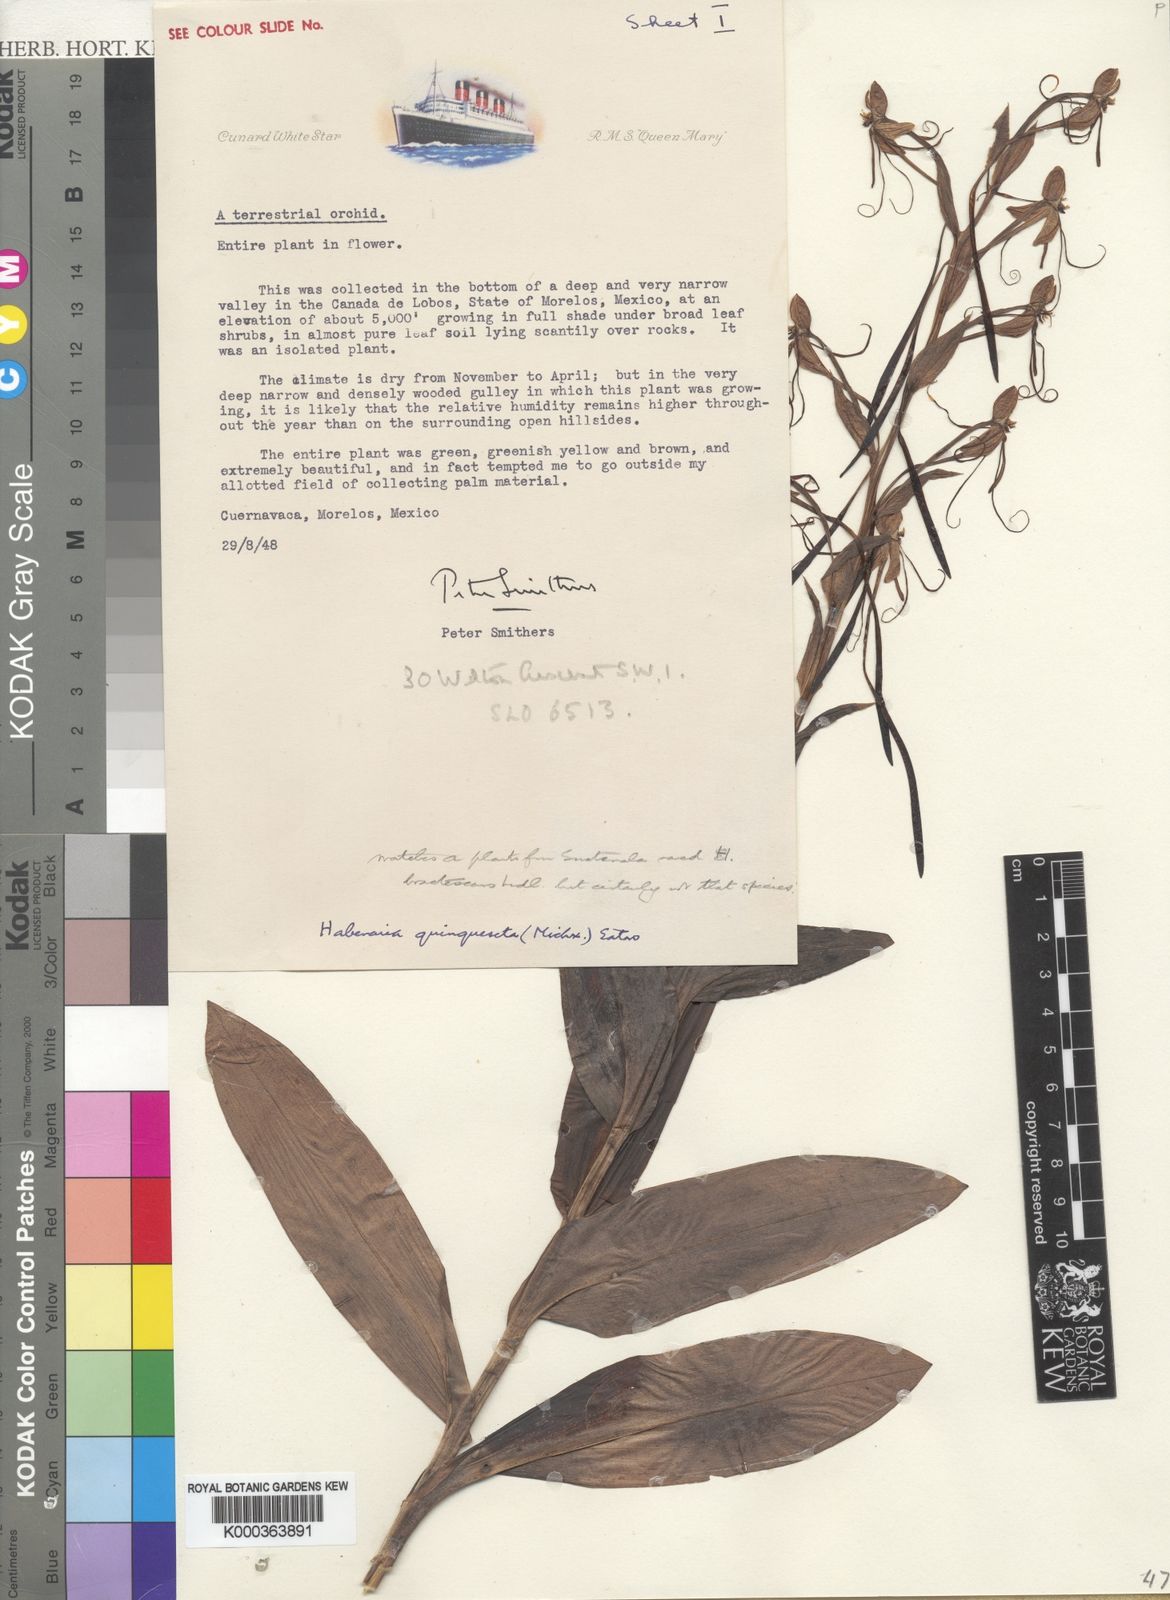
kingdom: Plantae
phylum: Tracheophyta
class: Liliopsida
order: Asparagales
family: Orchidaceae
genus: Habenaria
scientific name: Habenaria
